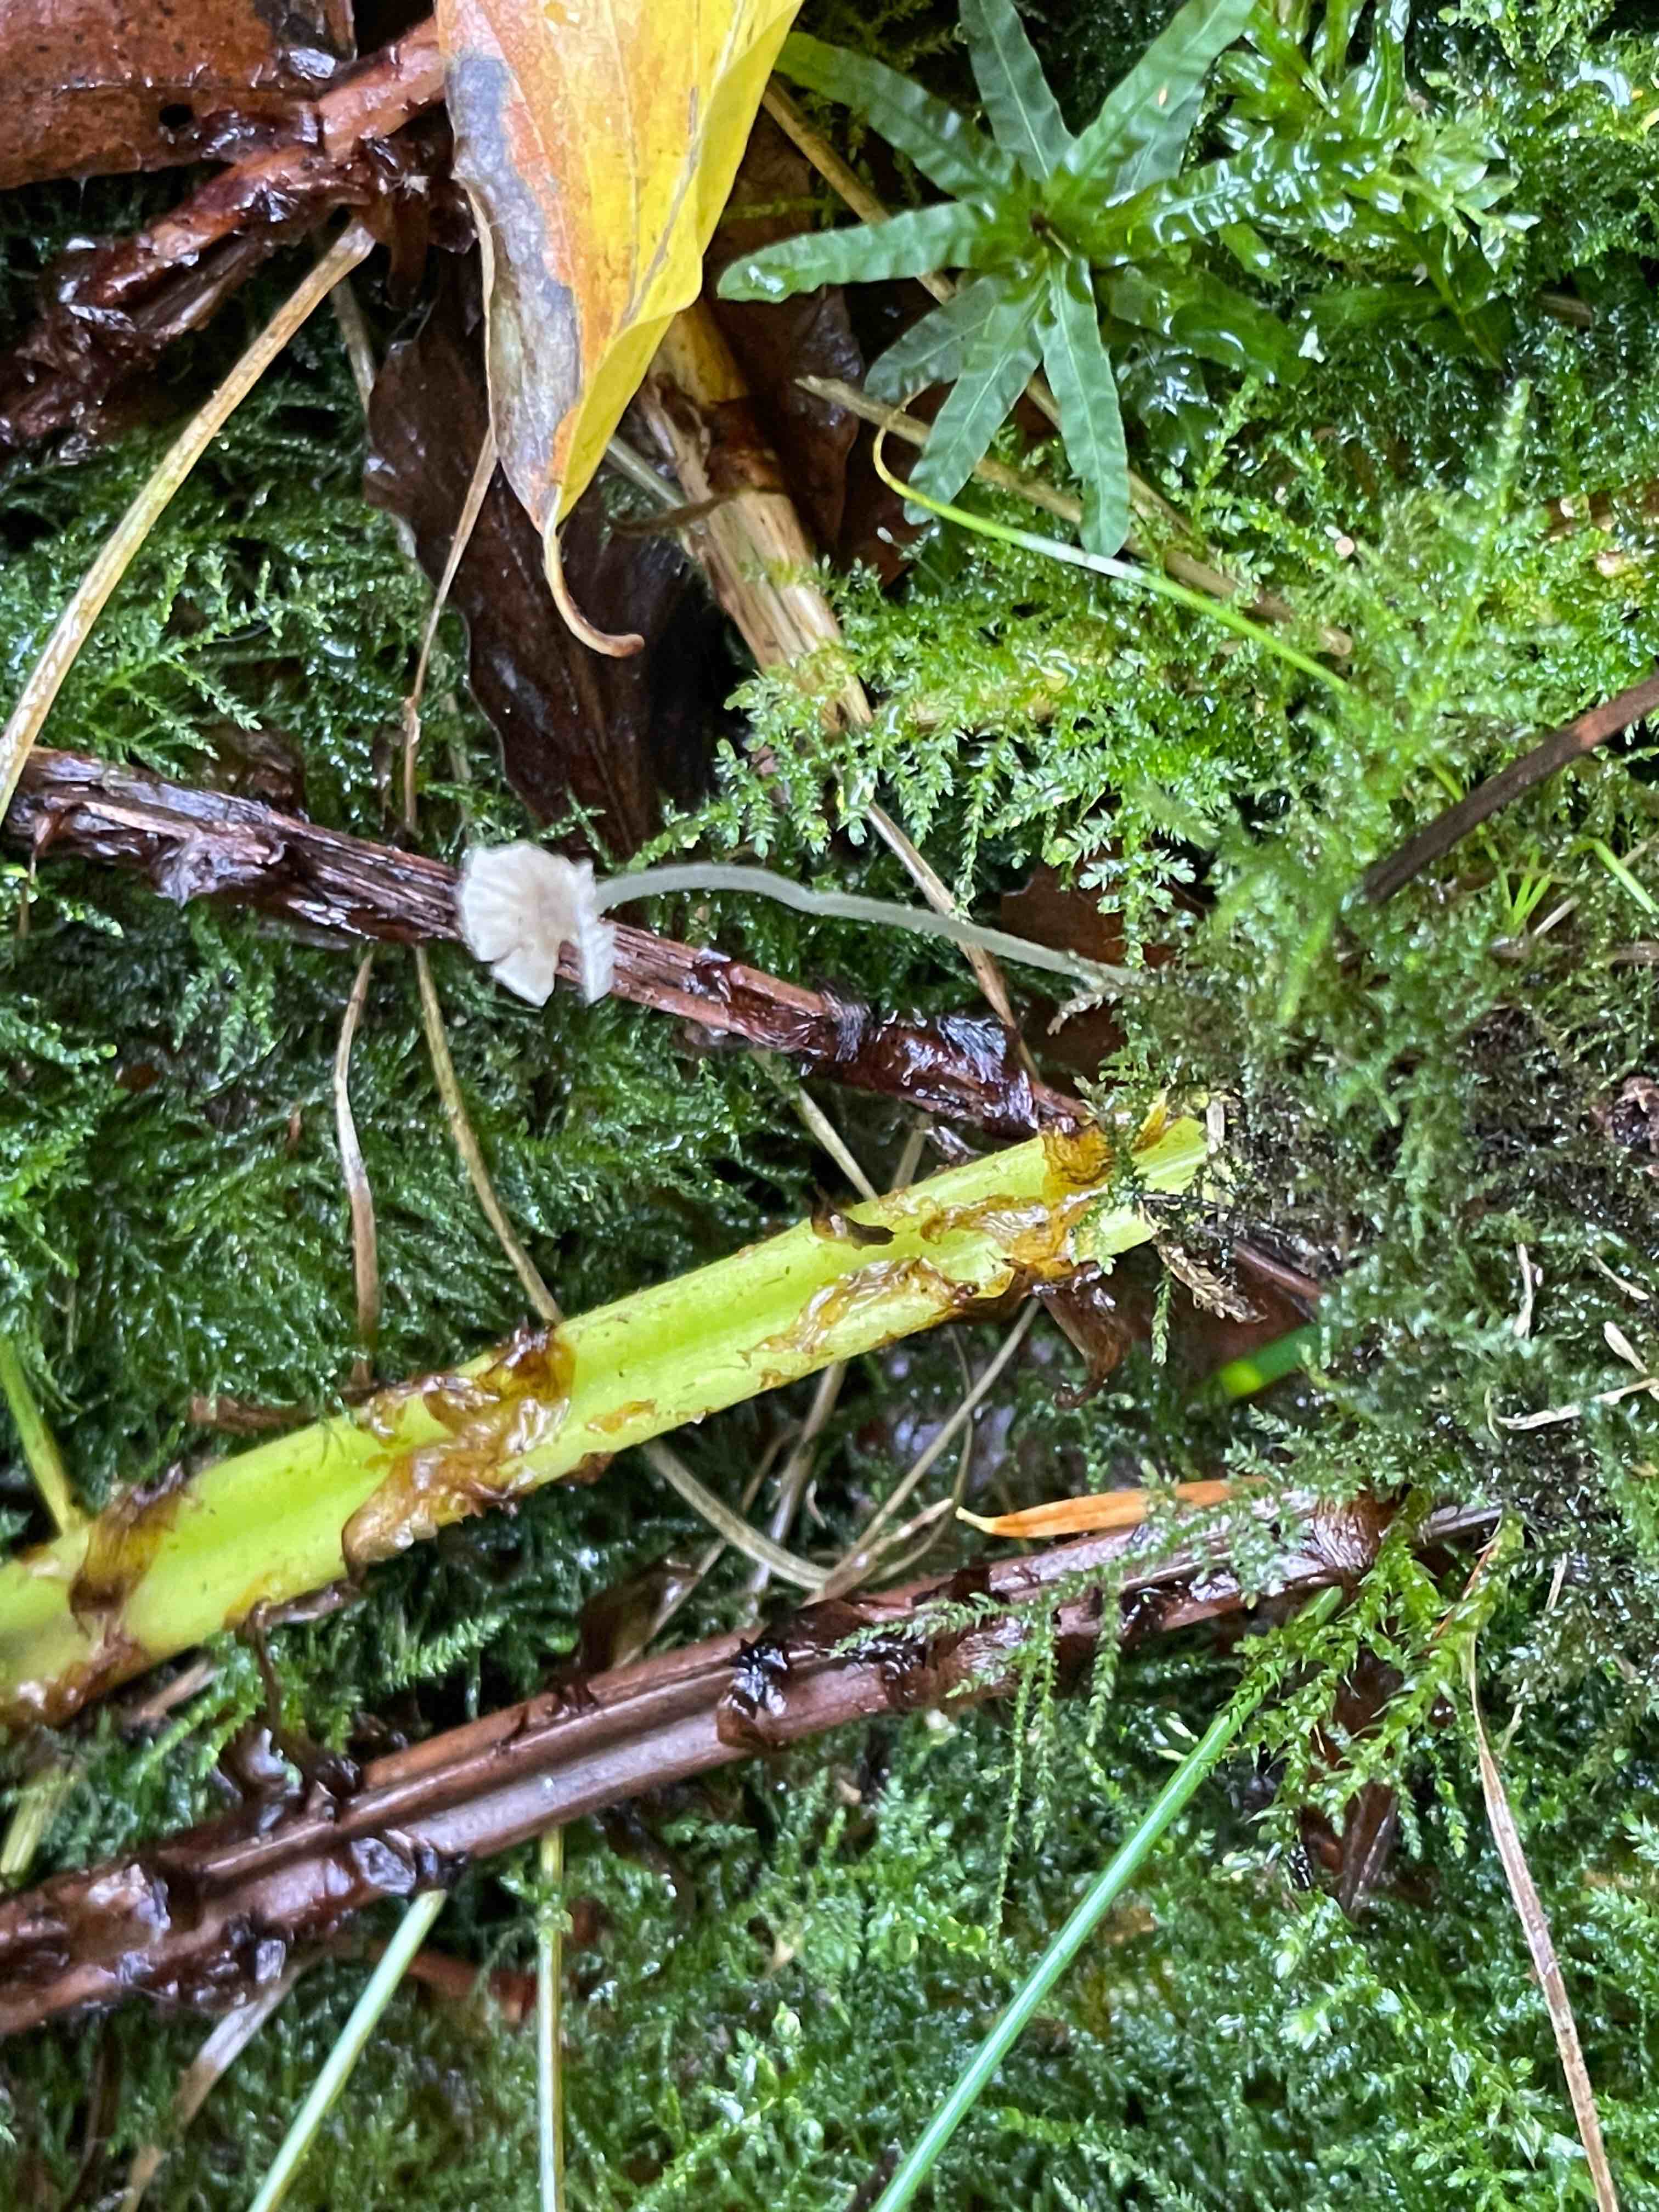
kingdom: Fungi
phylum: Basidiomycota
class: Agaricomycetes
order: Agaricales
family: Mycenaceae
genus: Mycena
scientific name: Mycena cinerella
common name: mel-huesvamp
